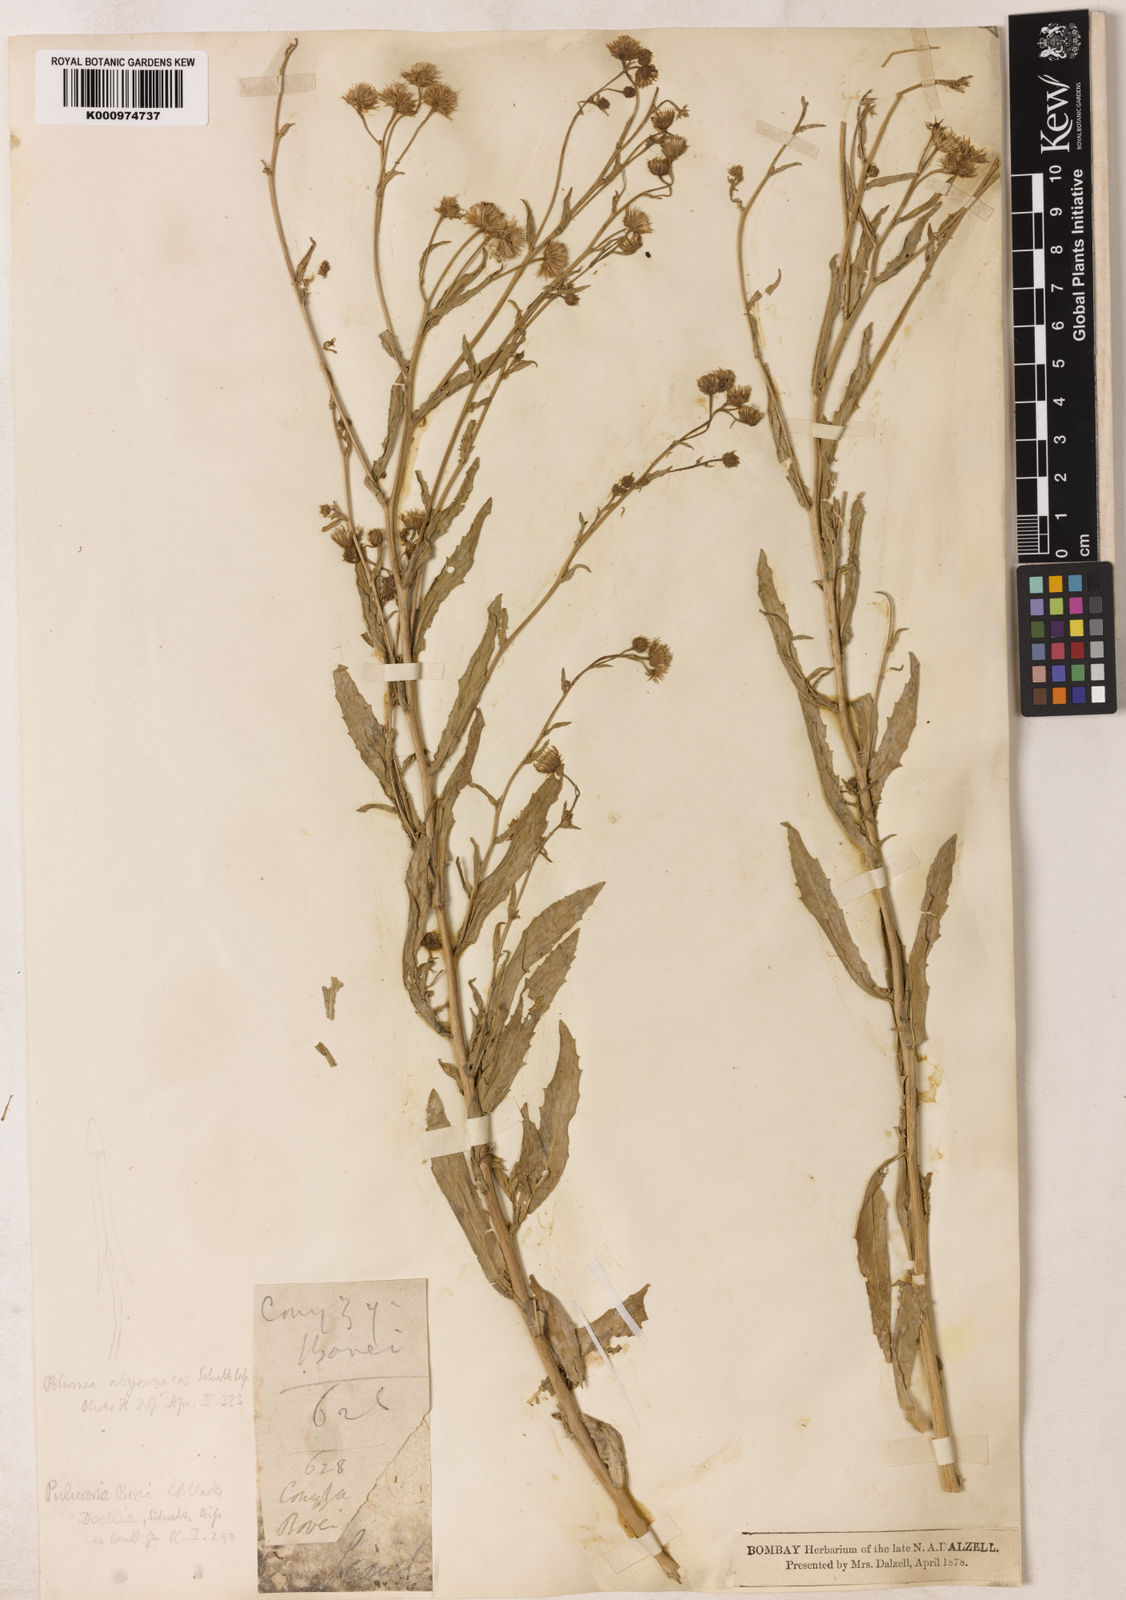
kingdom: Plantae
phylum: Tracheophyta
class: Magnoliopsida
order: Asterales
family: Asteraceae
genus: Doellia
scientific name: Doellia bovei
